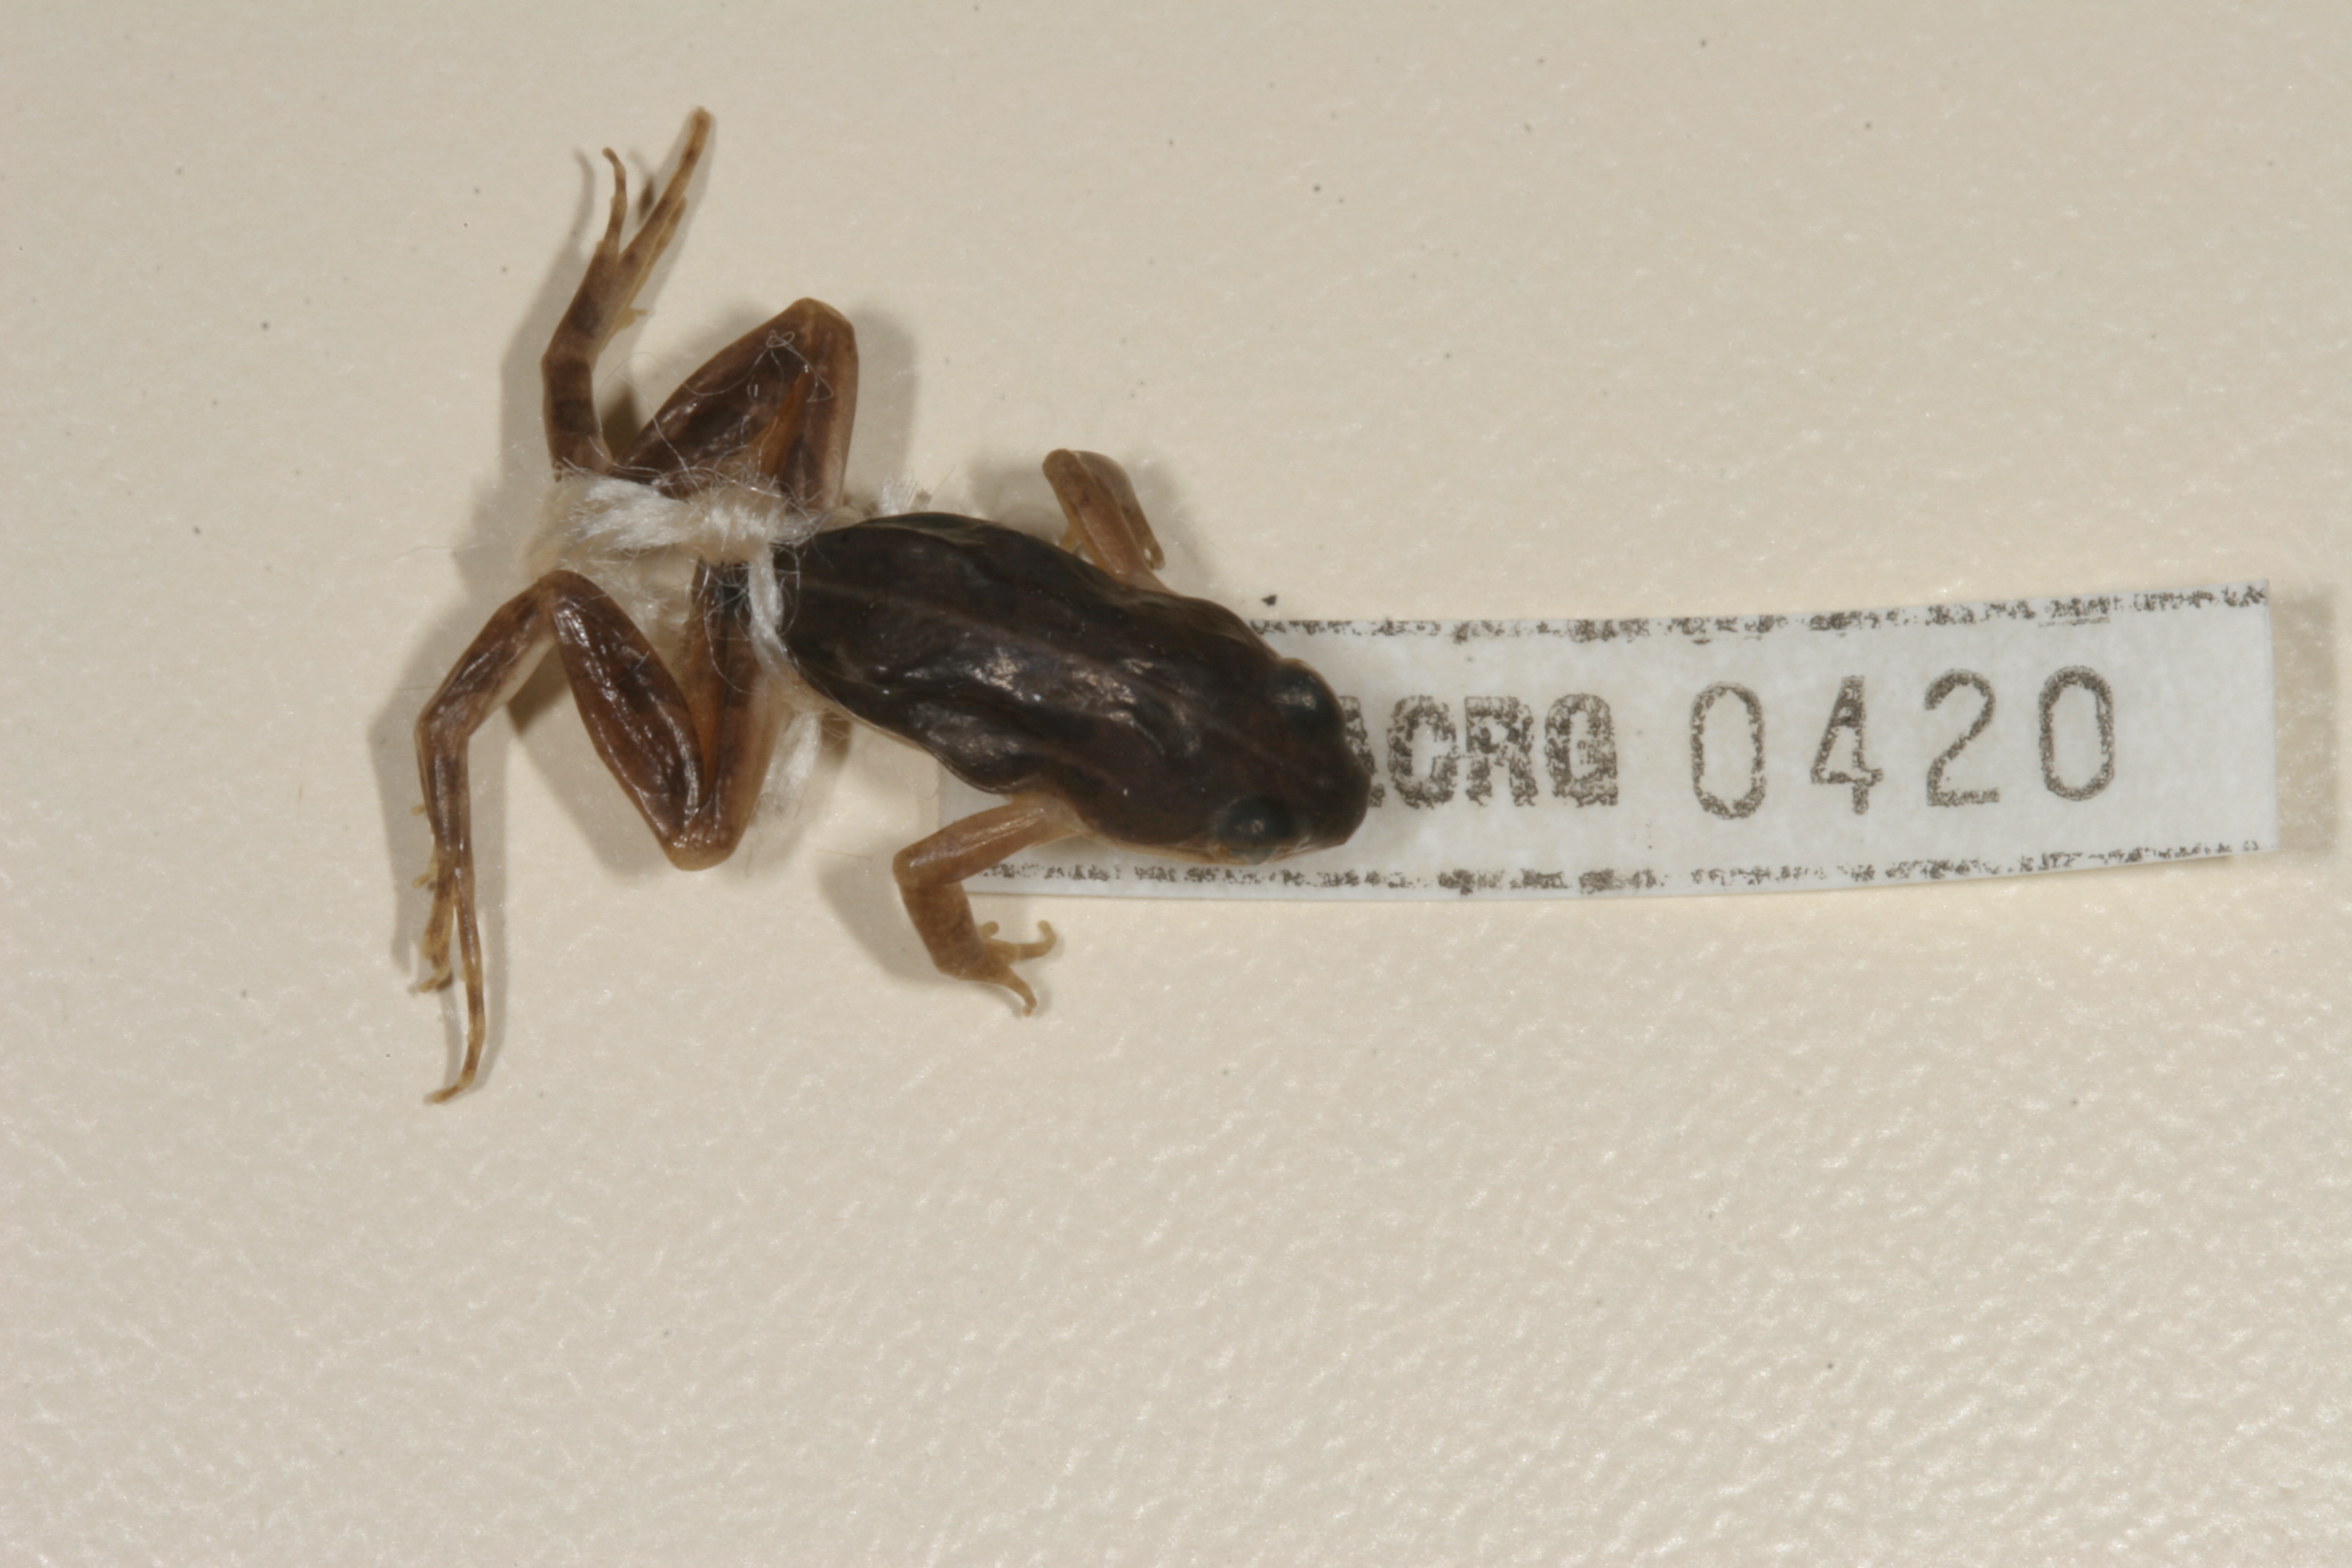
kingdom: Animalia
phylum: Chordata
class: Amphibia
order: Anura
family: Pyxicephalidae
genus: Cacosternum
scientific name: Cacosternum boettgeri
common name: Boettger's frog
